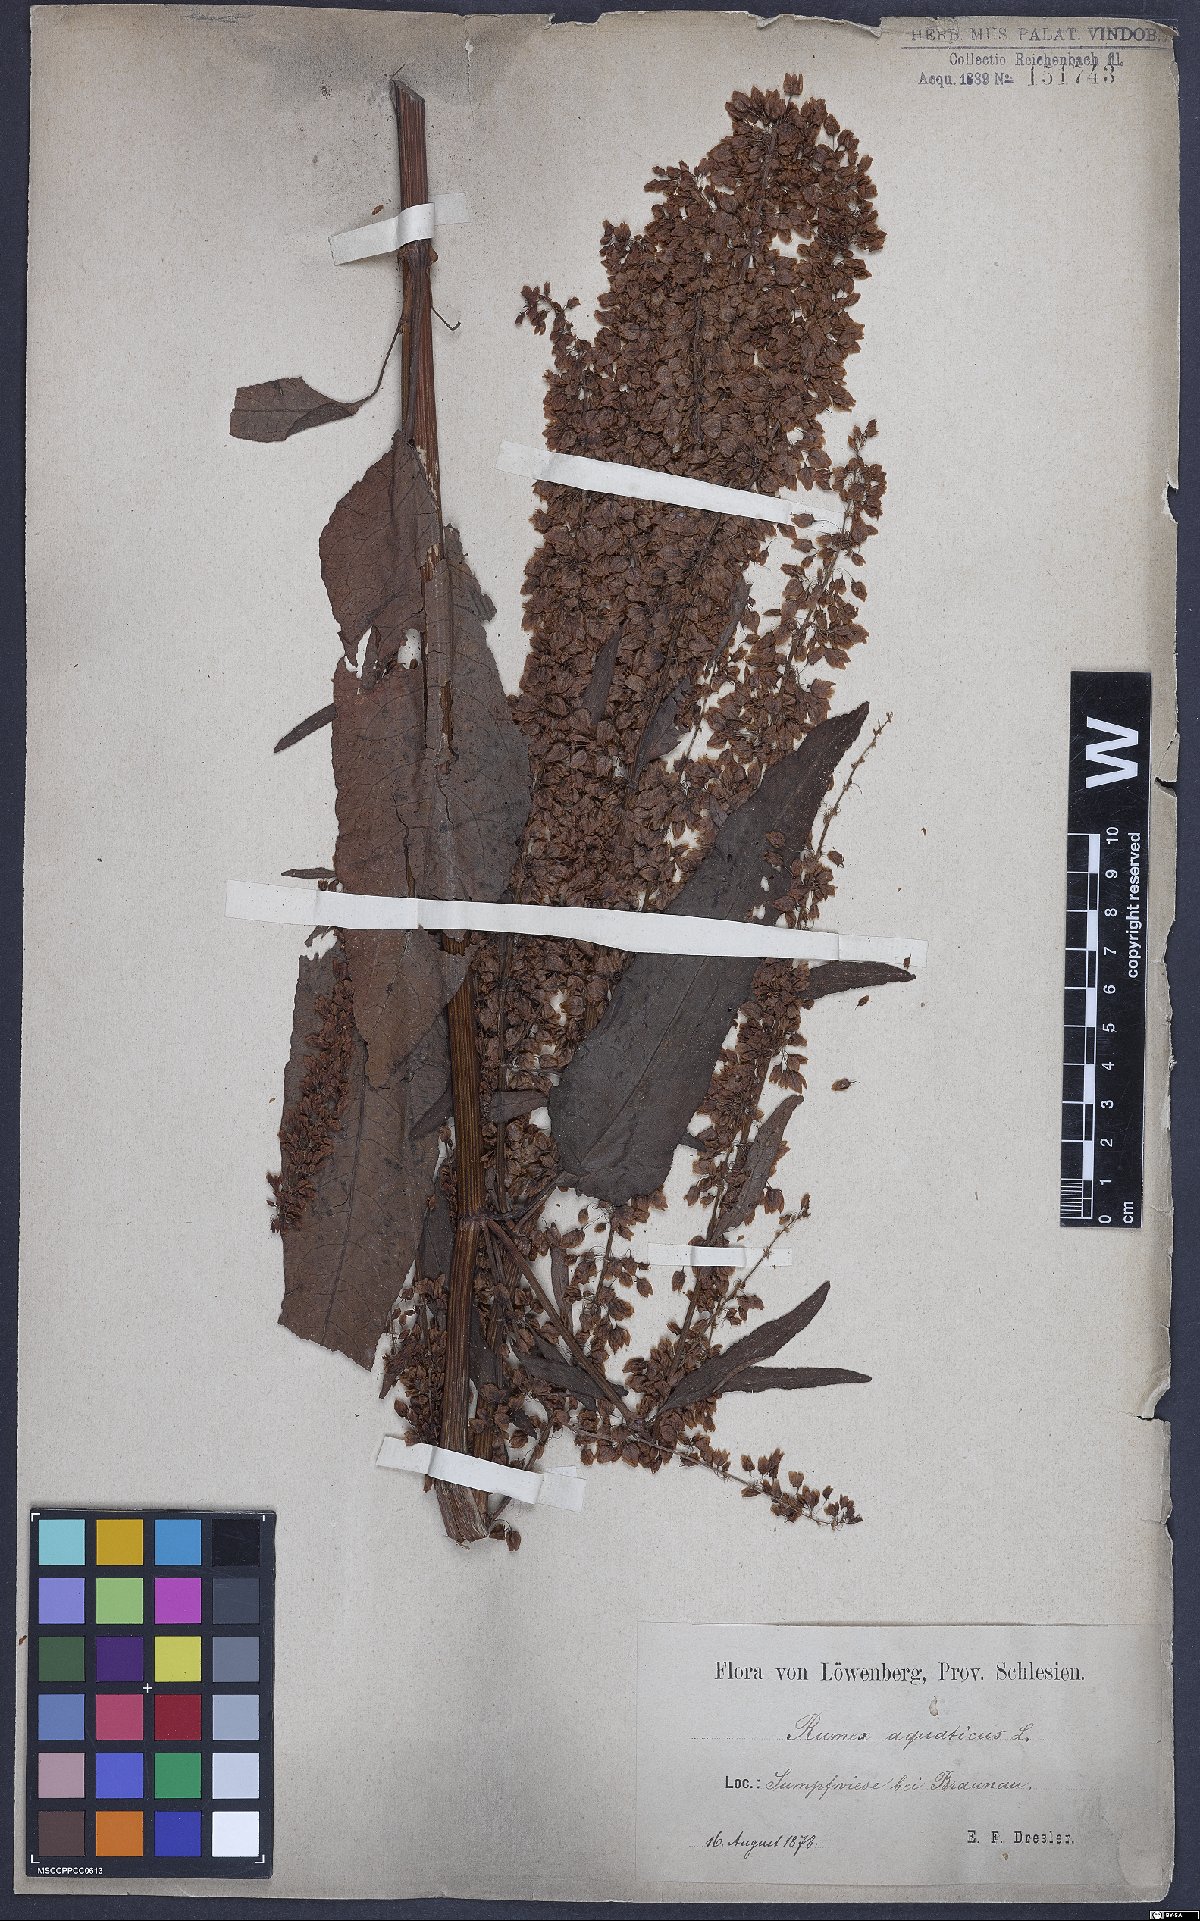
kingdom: Plantae
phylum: Tracheophyta
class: Magnoliopsida
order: Caryophyllales
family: Polygonaceae
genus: Rumex
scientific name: Rumex aquaticus
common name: Scottish dock
